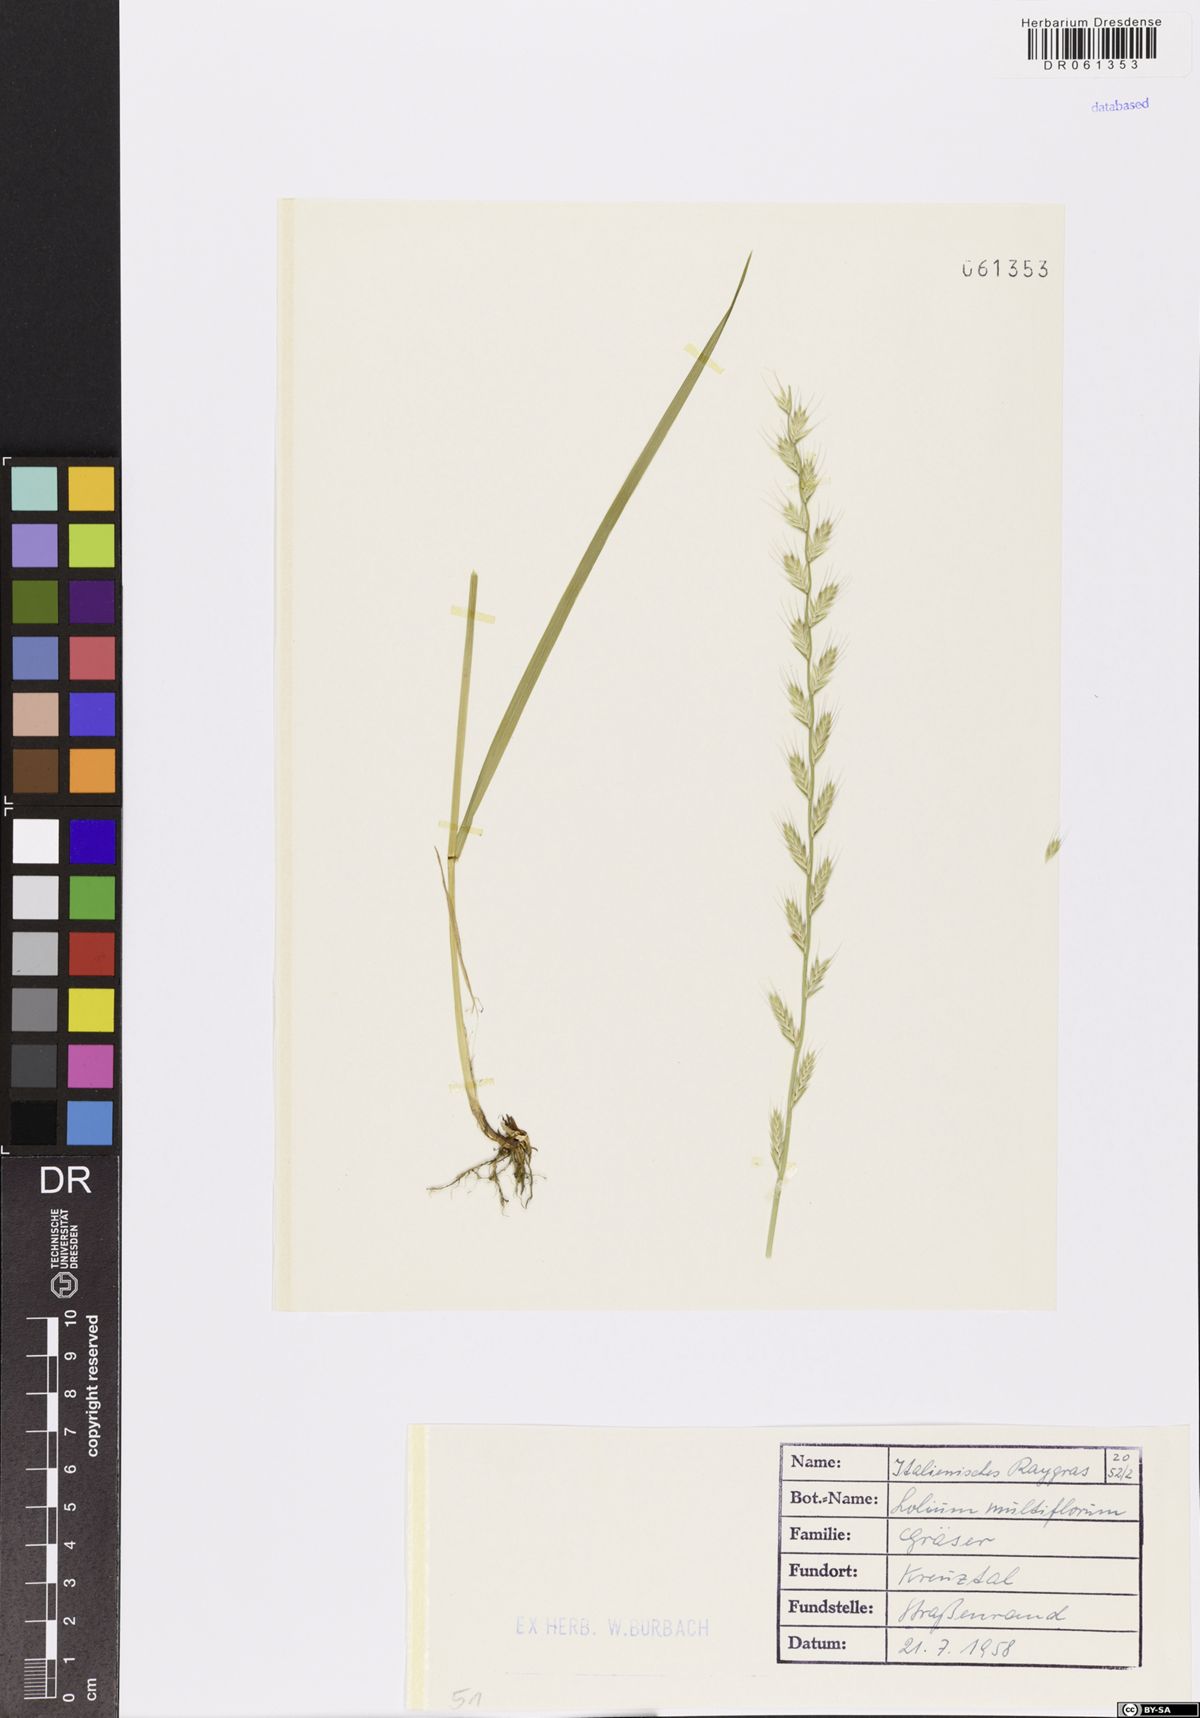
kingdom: Plantae
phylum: Tracheophyta
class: Liliopsida
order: Poales
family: Poaceae
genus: Lolium
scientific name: Lolium multiflorum
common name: Annual ryegrass
